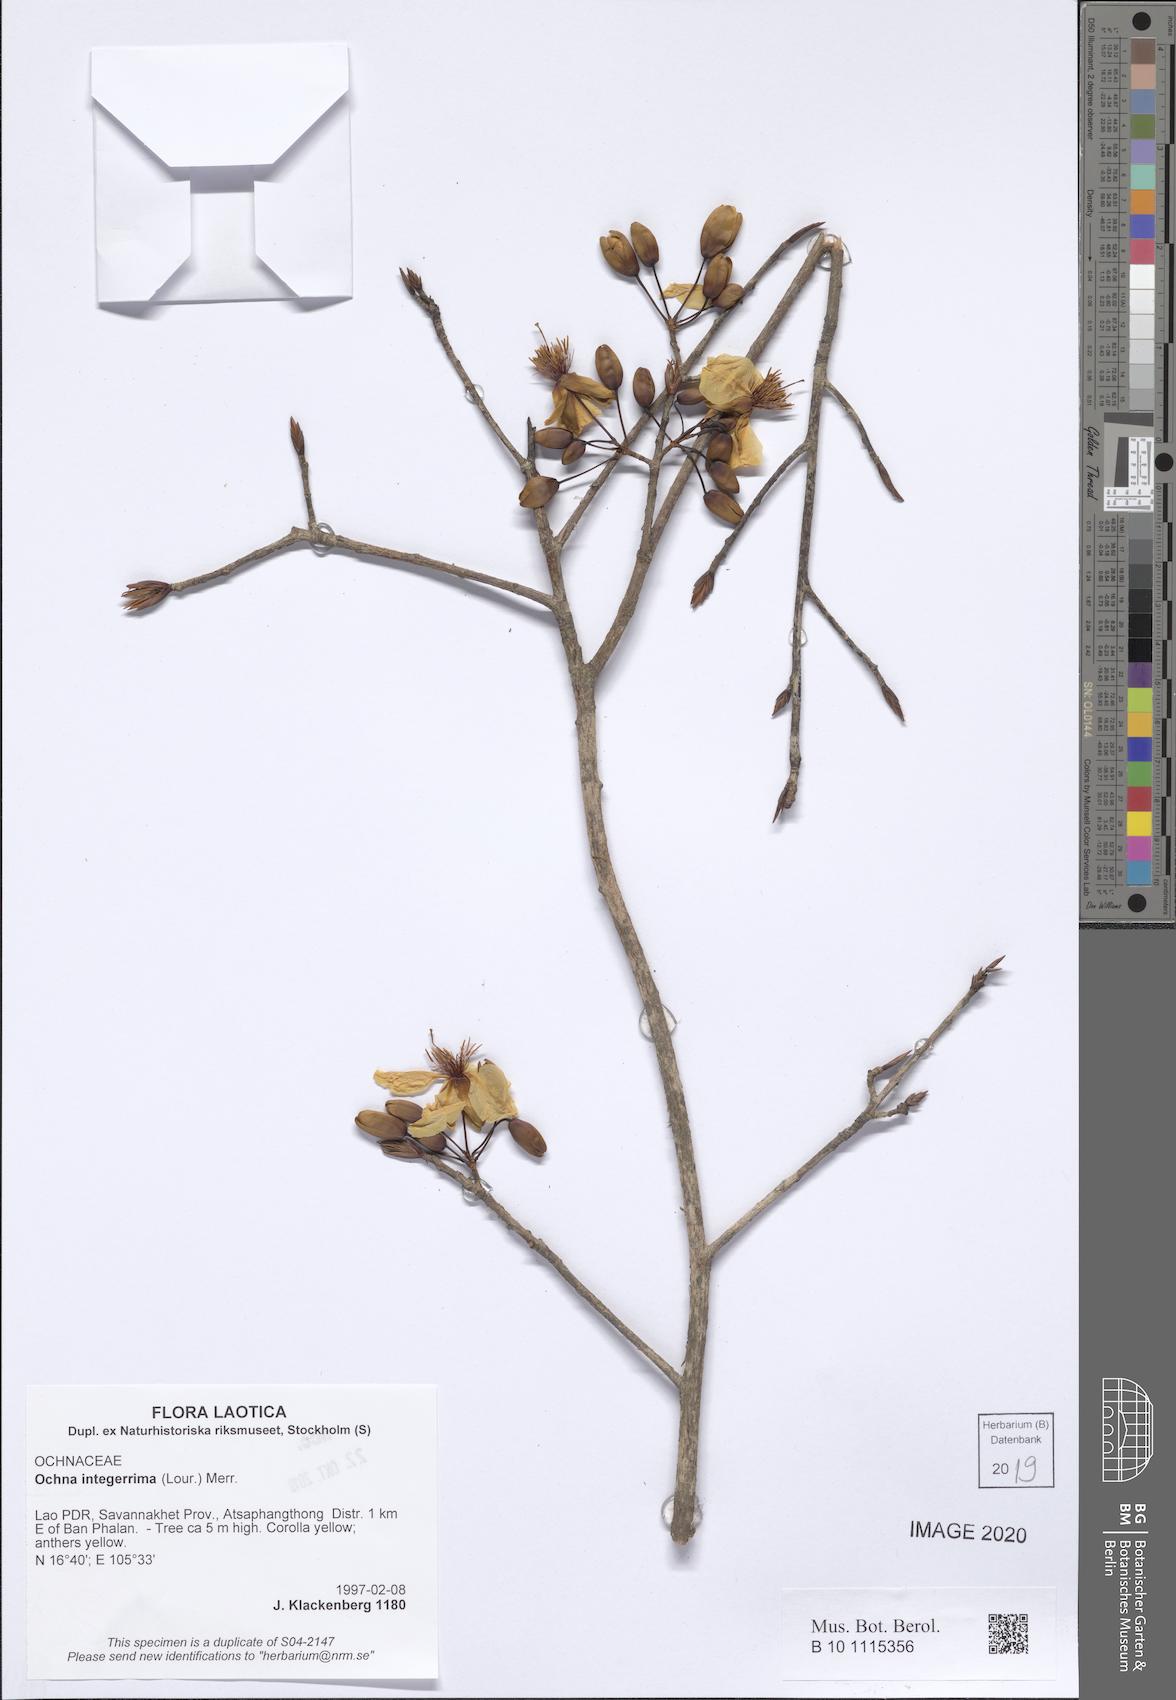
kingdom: Plantae
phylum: Tracheophyta
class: Magnoliopsida
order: Malpighiales
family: Ochnaceae
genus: Ochna
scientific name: Ochna integerrima
